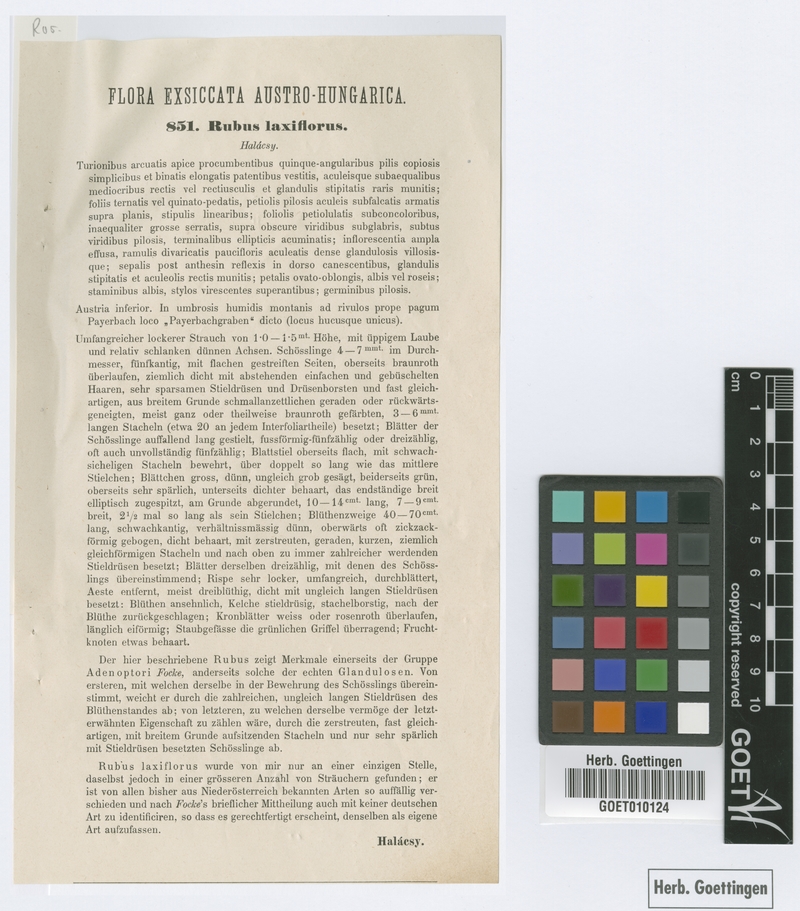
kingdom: Plantae
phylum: Tracheophyta
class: Magnoliopsida
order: Rosales
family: Rosaceae
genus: Rubus
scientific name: Rubus laxiflorus
